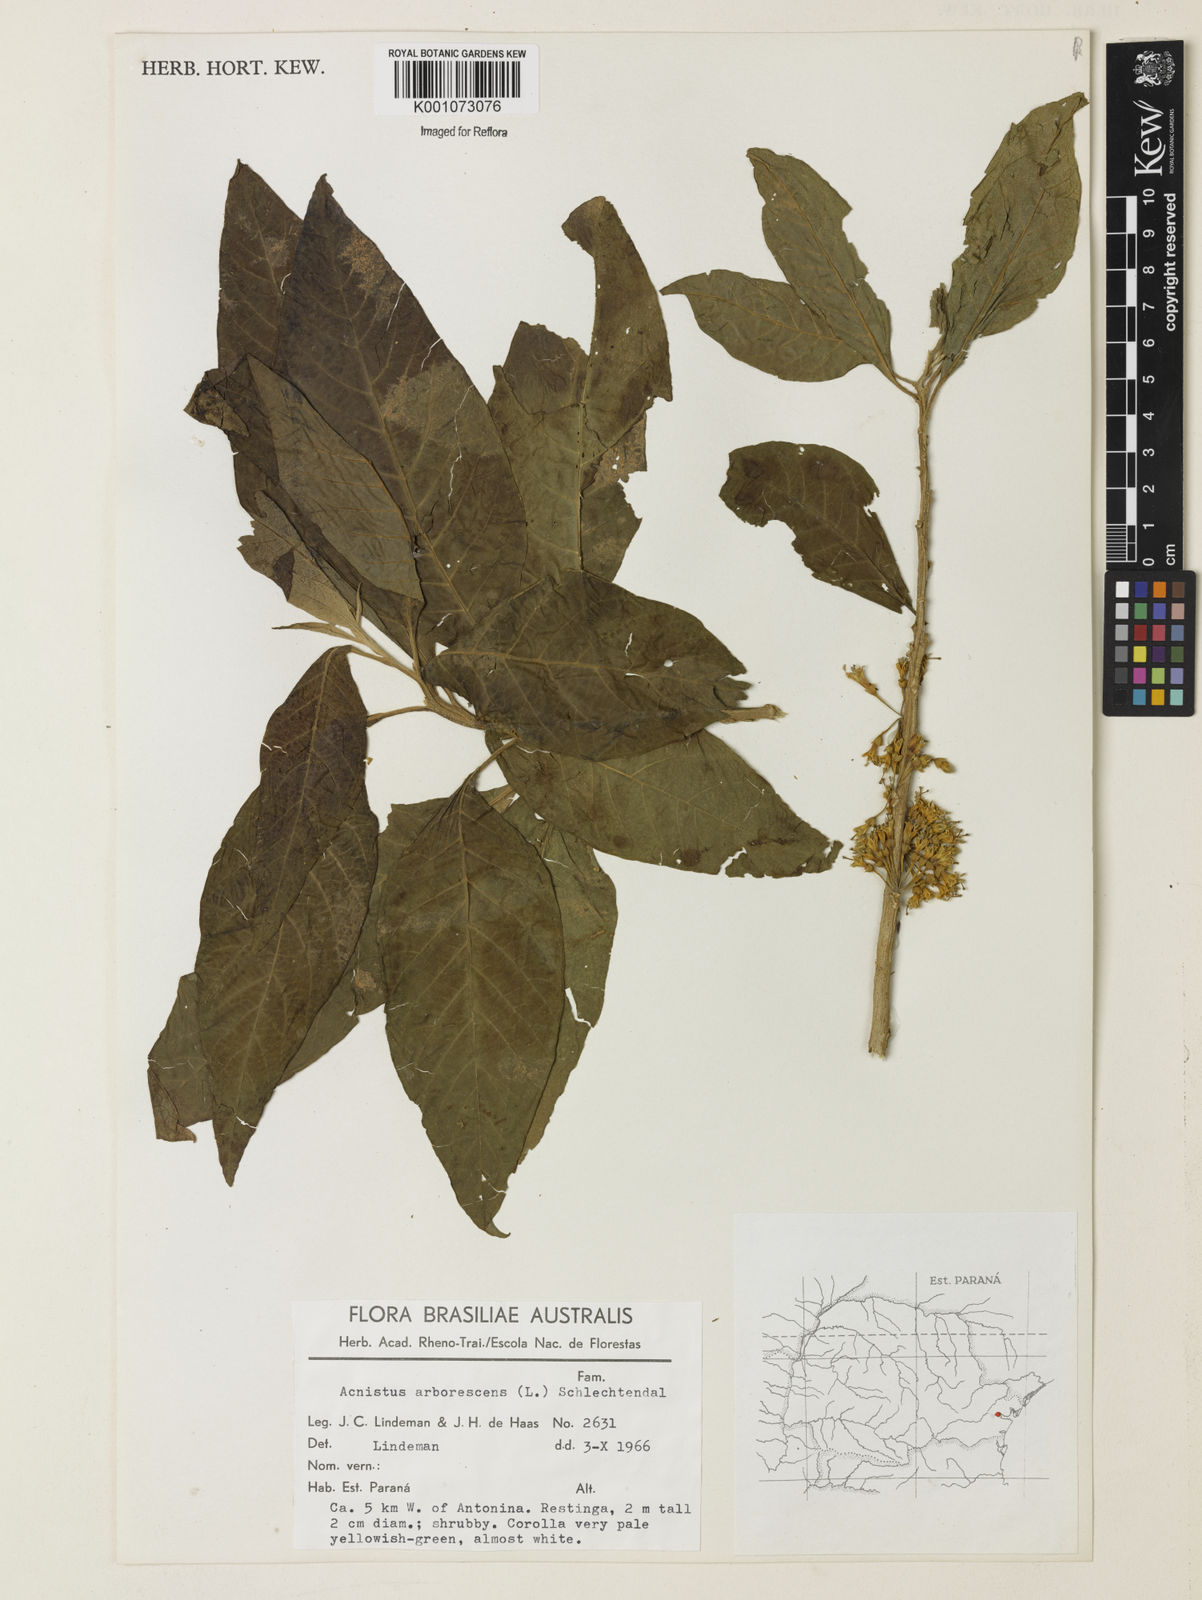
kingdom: Plantae
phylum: Tracheophyta
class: Magnoliopsida
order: Solanales
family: Solanaceae
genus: Iochroma
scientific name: Iochroma arborescens
